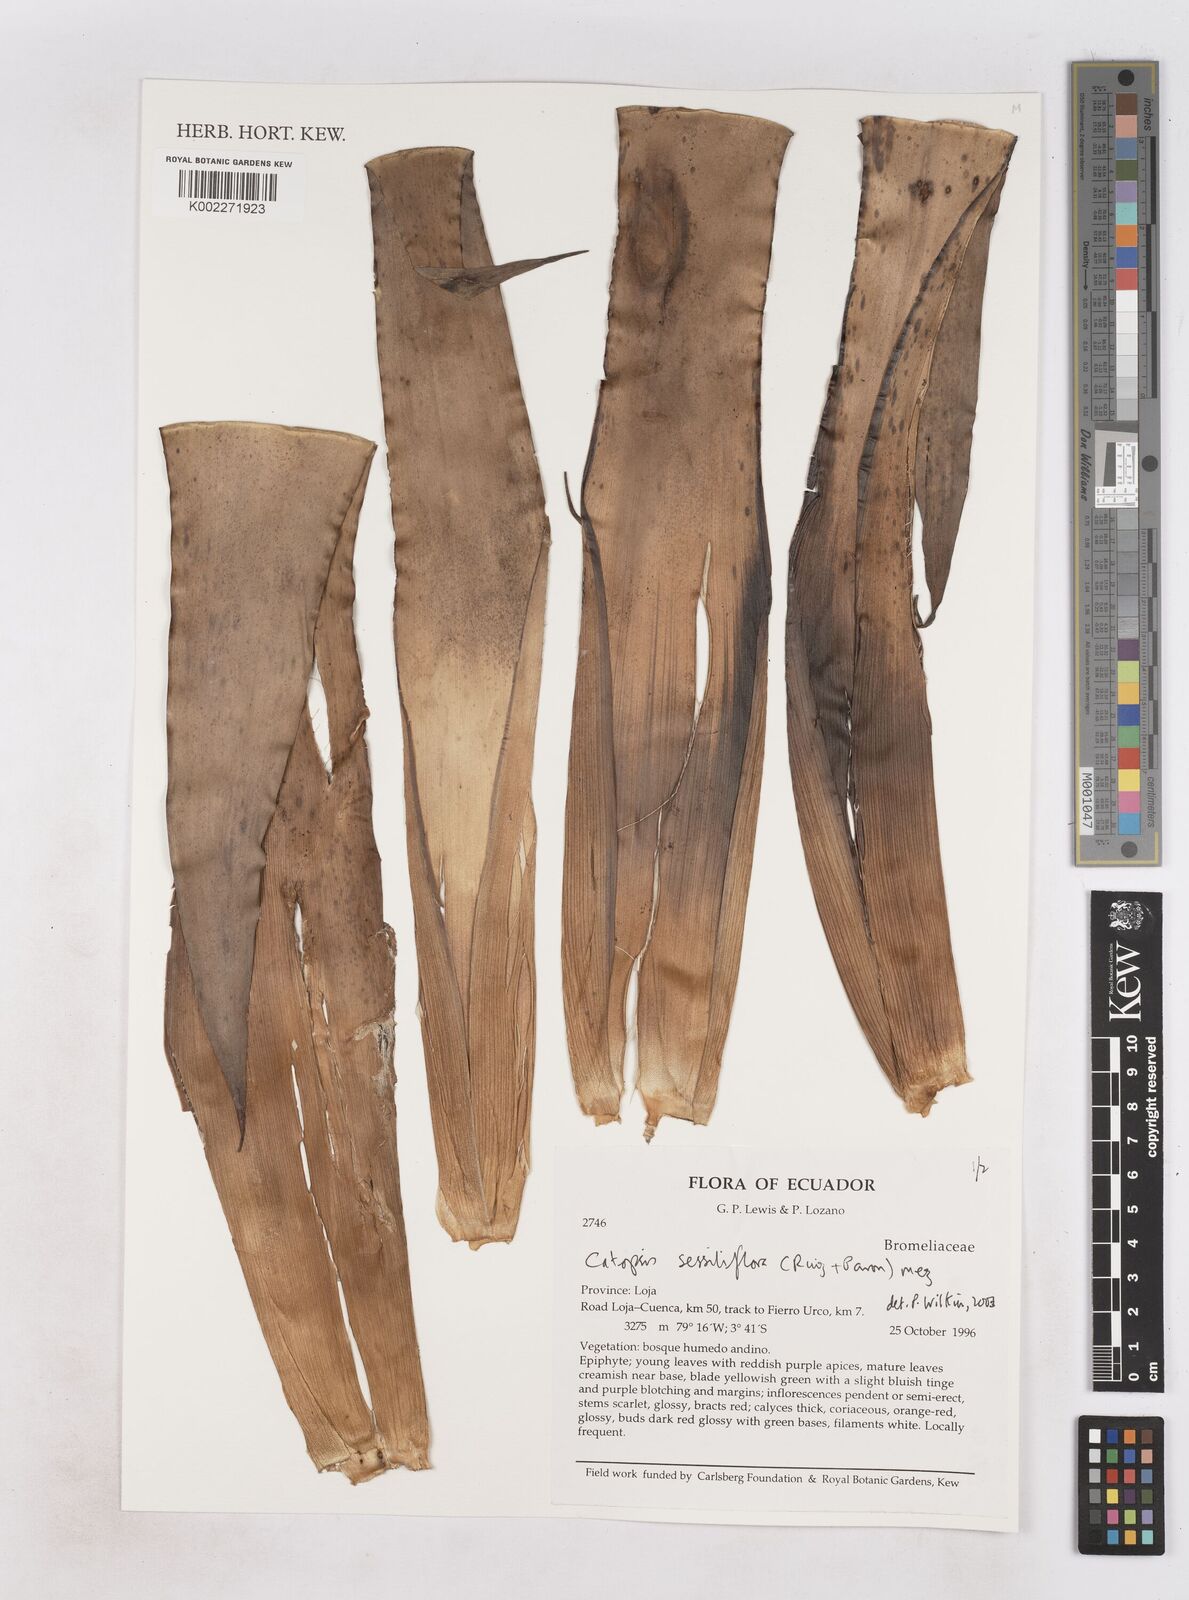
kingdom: Plantae
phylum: Tracheophyta
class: Liliopsida
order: Poales
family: Bromeliaceae
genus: Catopsis
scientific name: Catopsis sessiliflora
